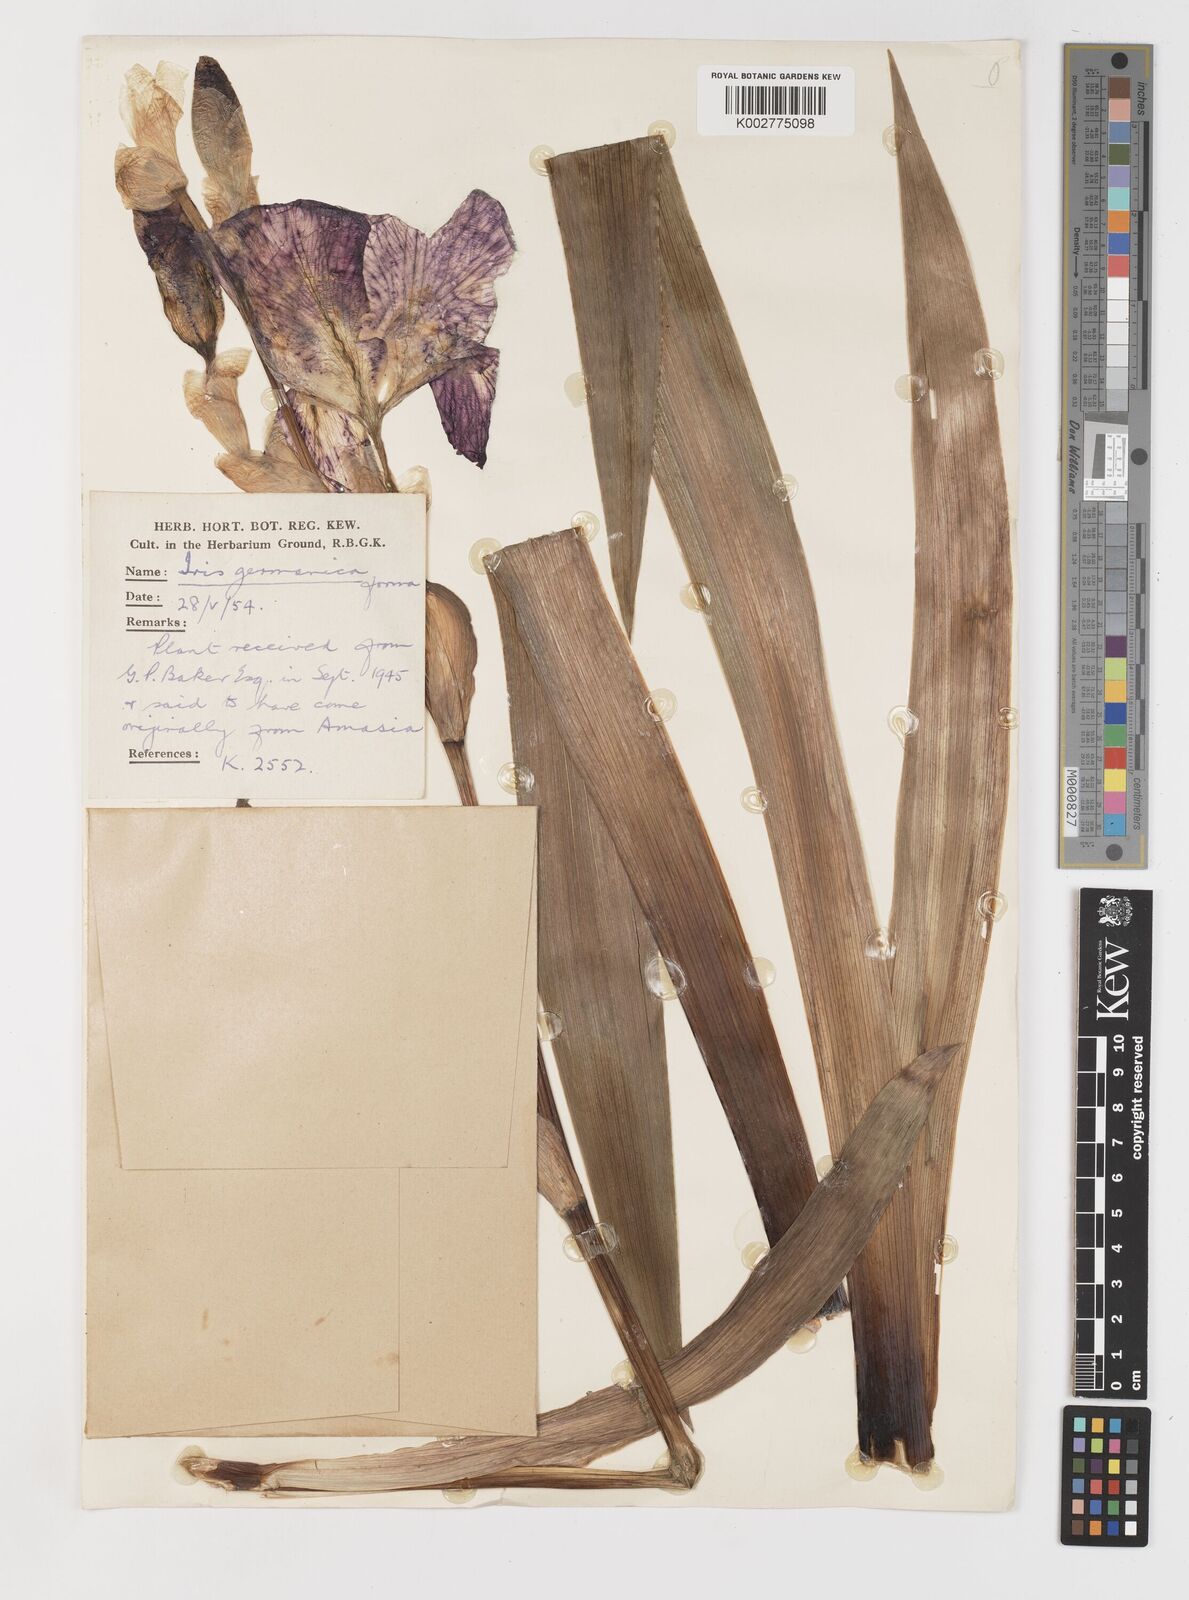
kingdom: Plantae
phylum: Tracheophyta
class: Liliopsida
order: Asparagales
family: Iridaceae
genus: Iris
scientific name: Iris germanica
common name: German iris
